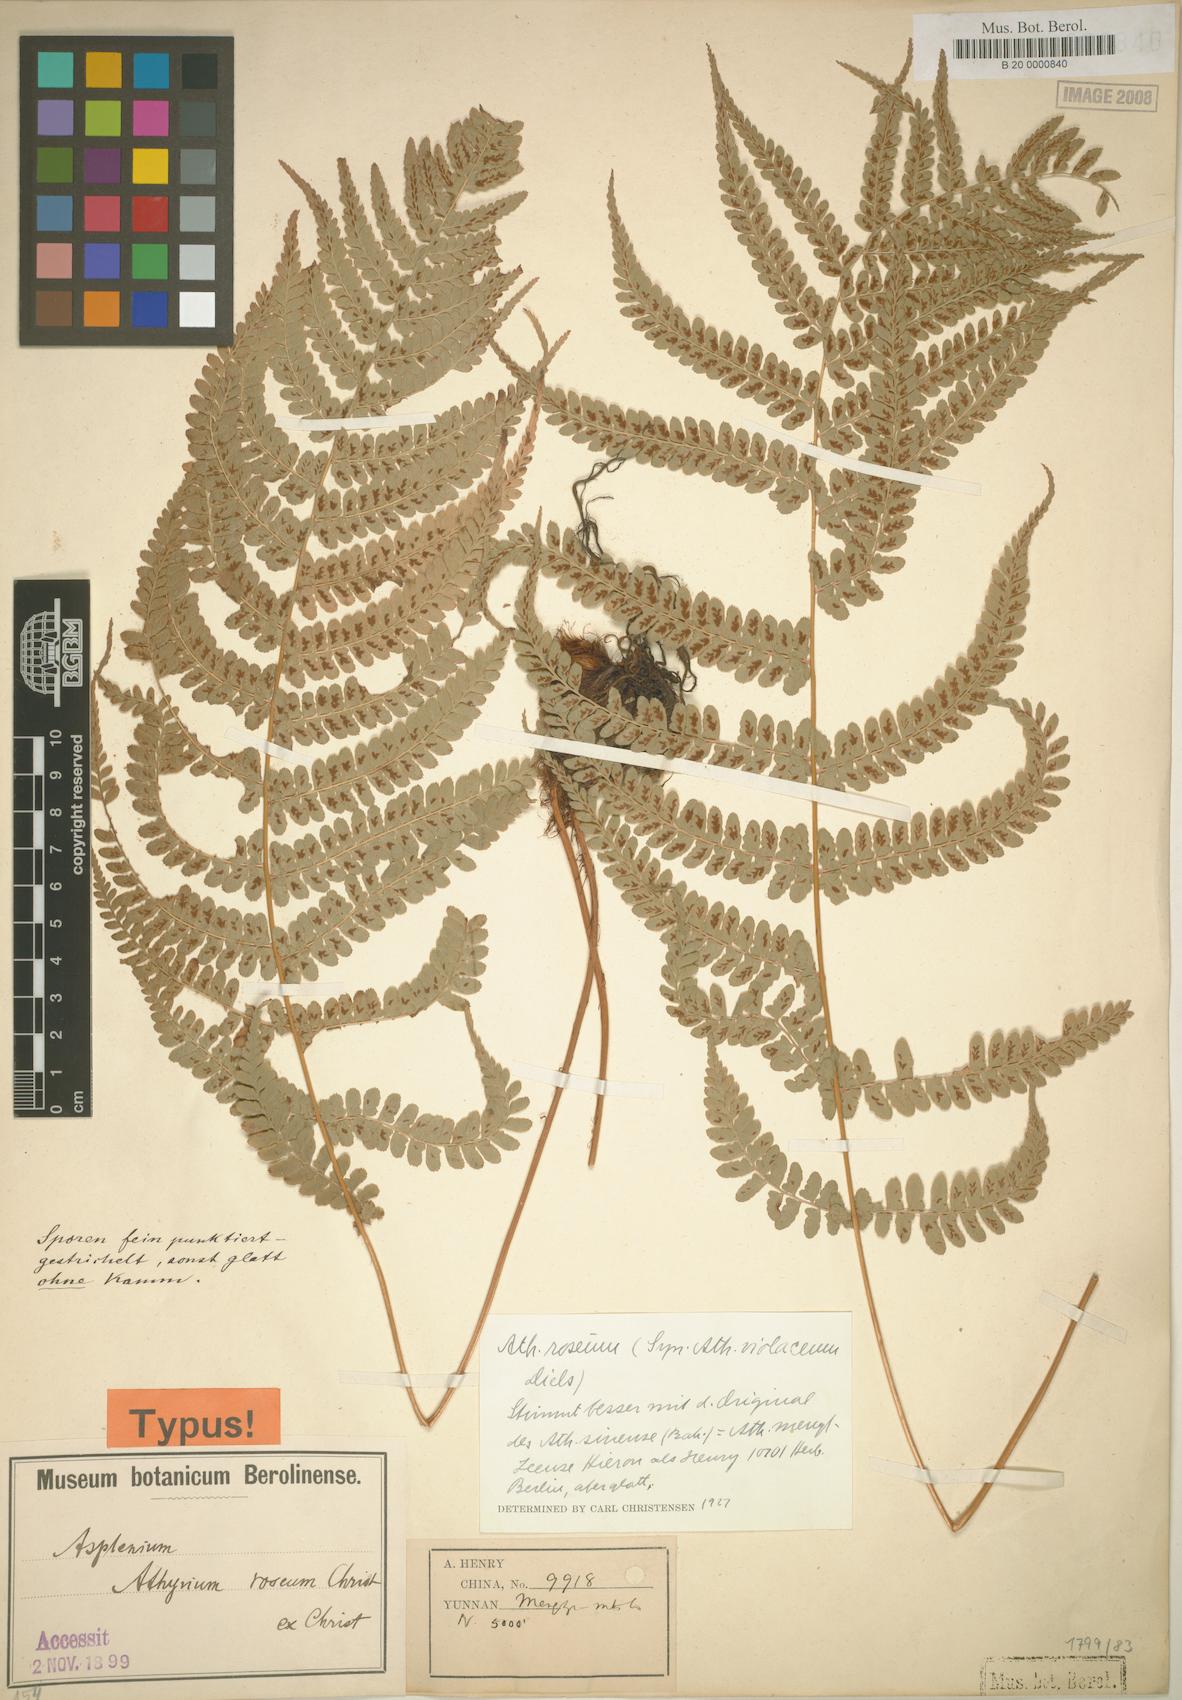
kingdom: Plantae
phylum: Tracheophyta
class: Polypodiopsida
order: Polypodiales
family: Athyriaceae
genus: Athyrium
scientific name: Athyrium roseum
